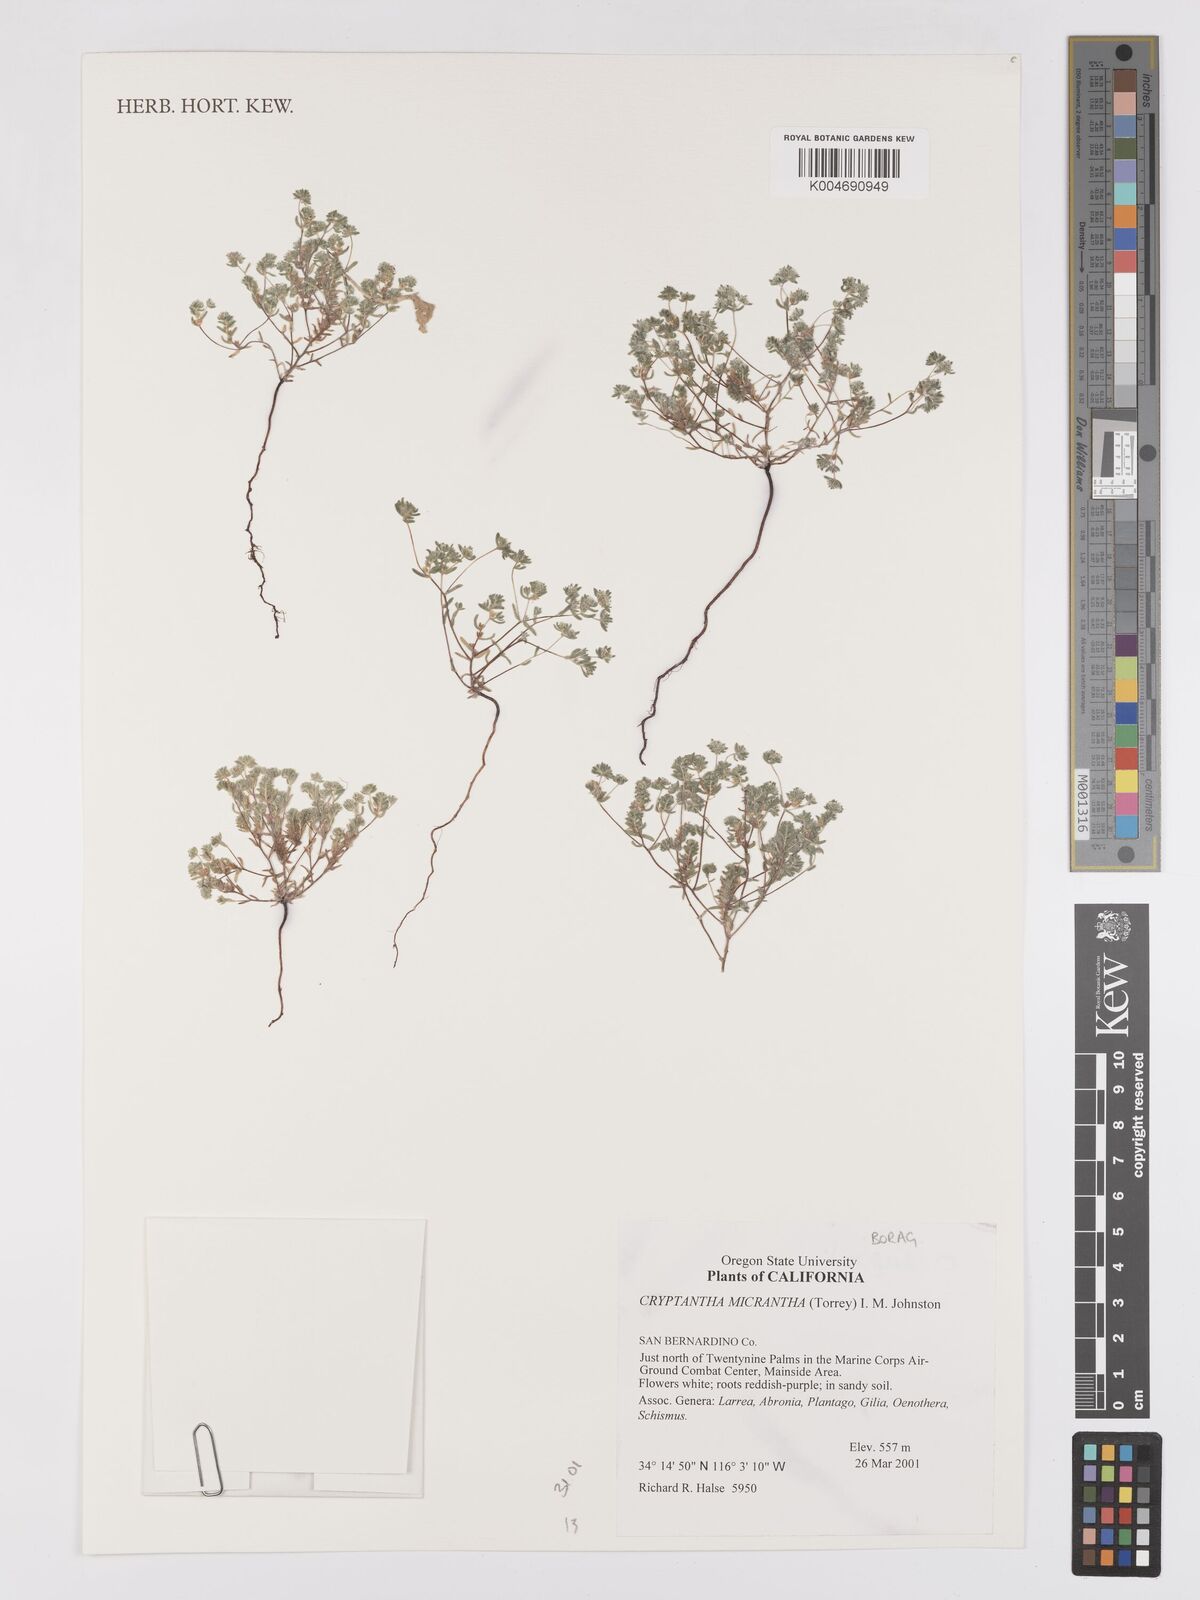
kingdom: Plantae
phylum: Tracheophyta
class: Magnoliopsida
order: Boraginales
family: Boraginaceae
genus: Eremocarya
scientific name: Eremocarya micrantha
